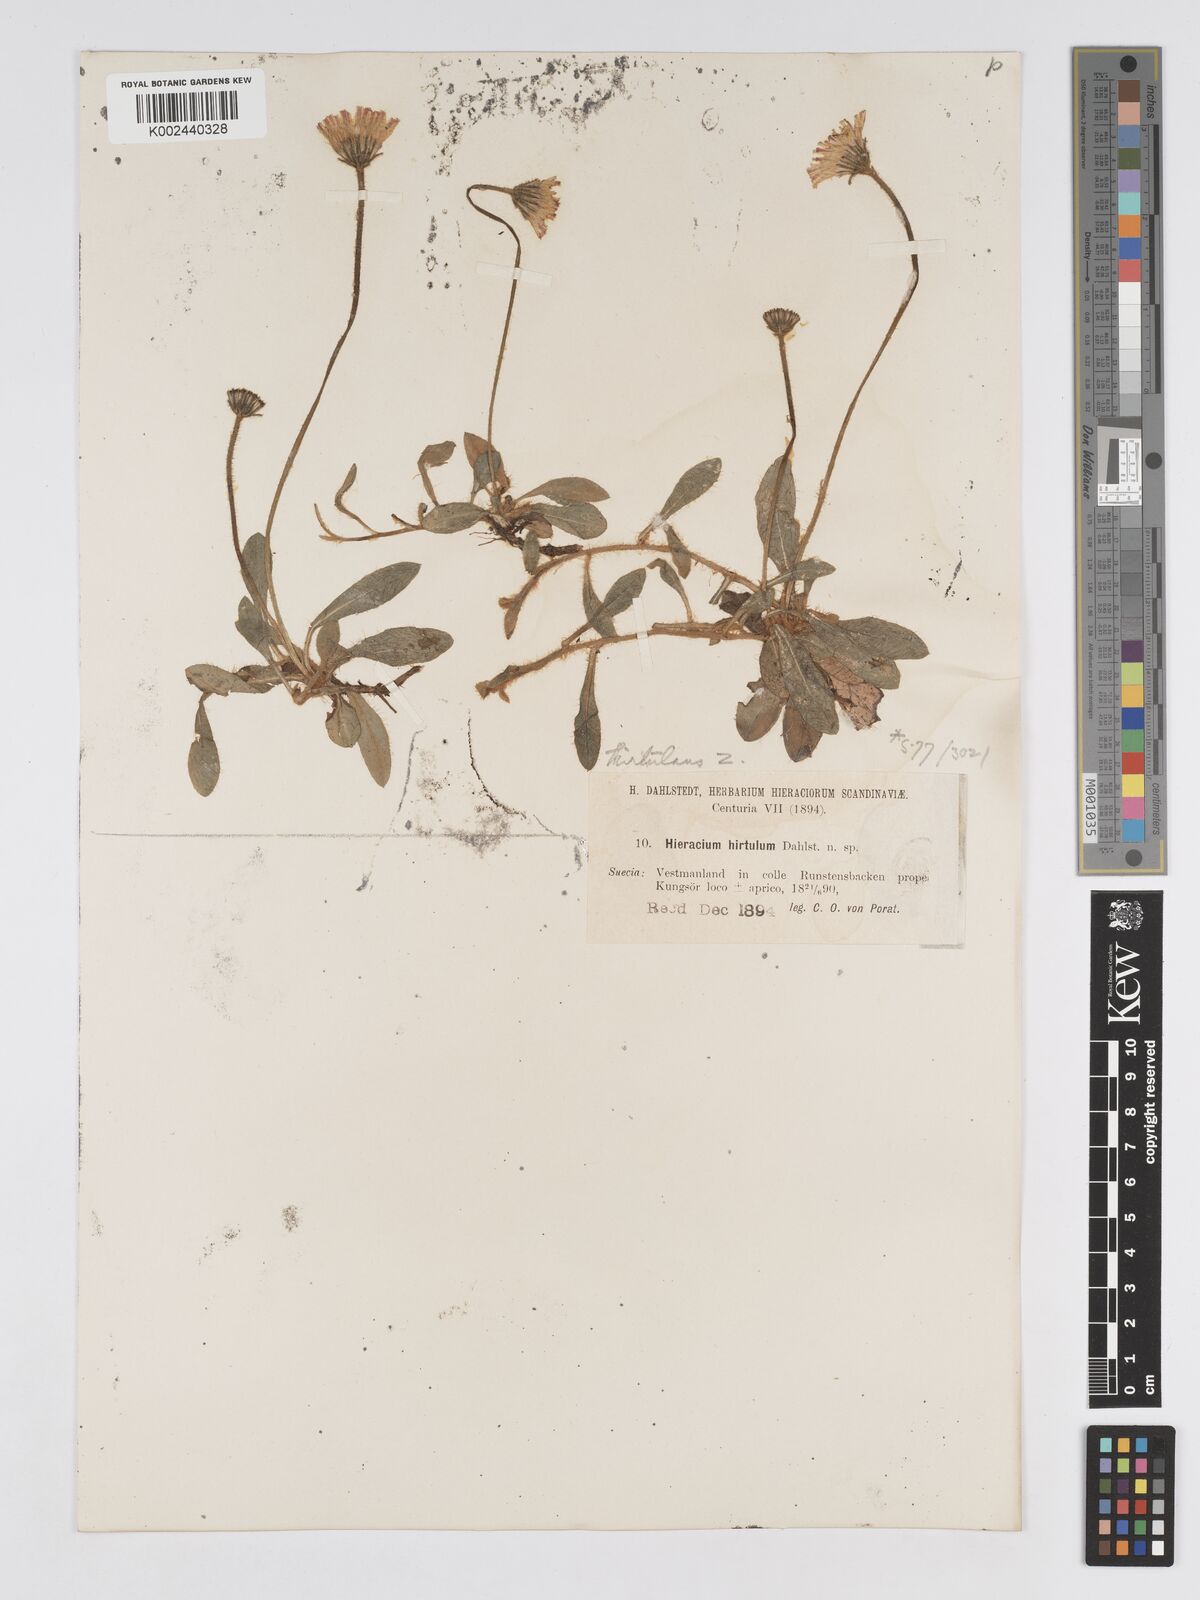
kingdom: Plantae
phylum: Tracheophyta
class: Magnoliopsida
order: Asterales
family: Asteraceae
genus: Hieracium
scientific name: Hieracium
